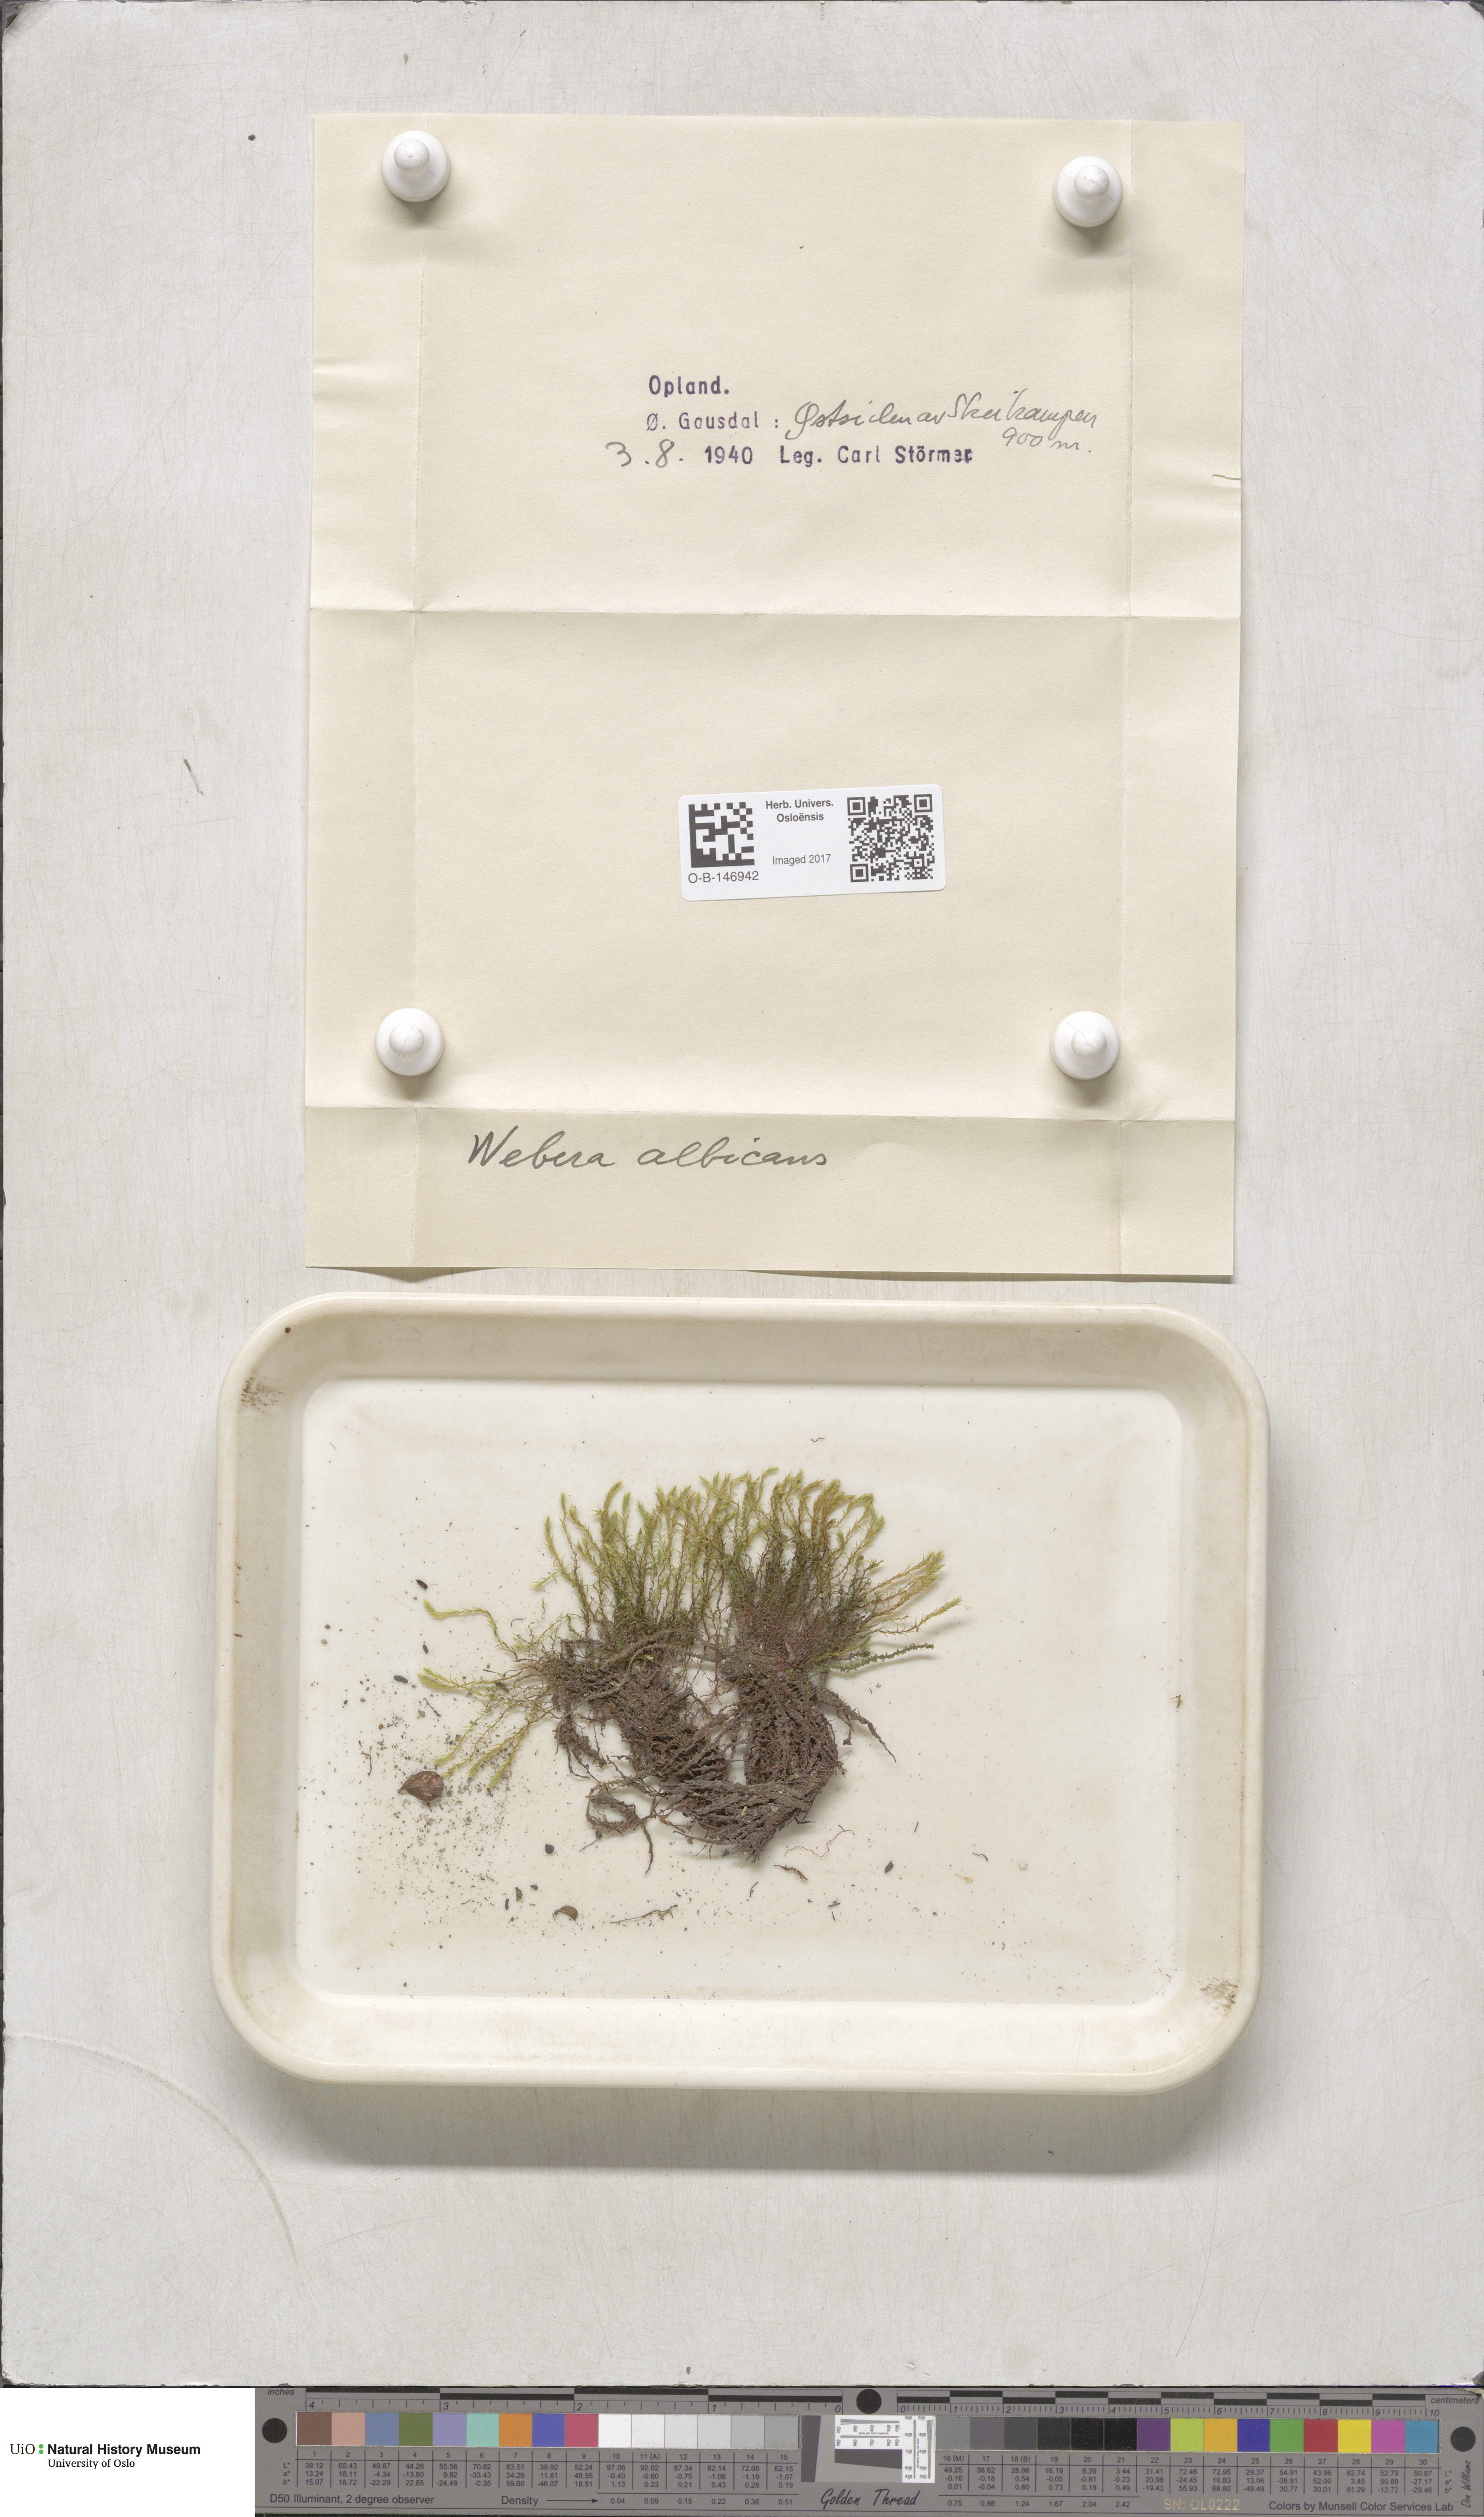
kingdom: Plantae
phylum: Bryophyta
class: Bryopsida
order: Bryales
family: Mniaceae
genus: Pohlia
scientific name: Pohlia wahlenbergii
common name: Wahlenberg's nodding moss
